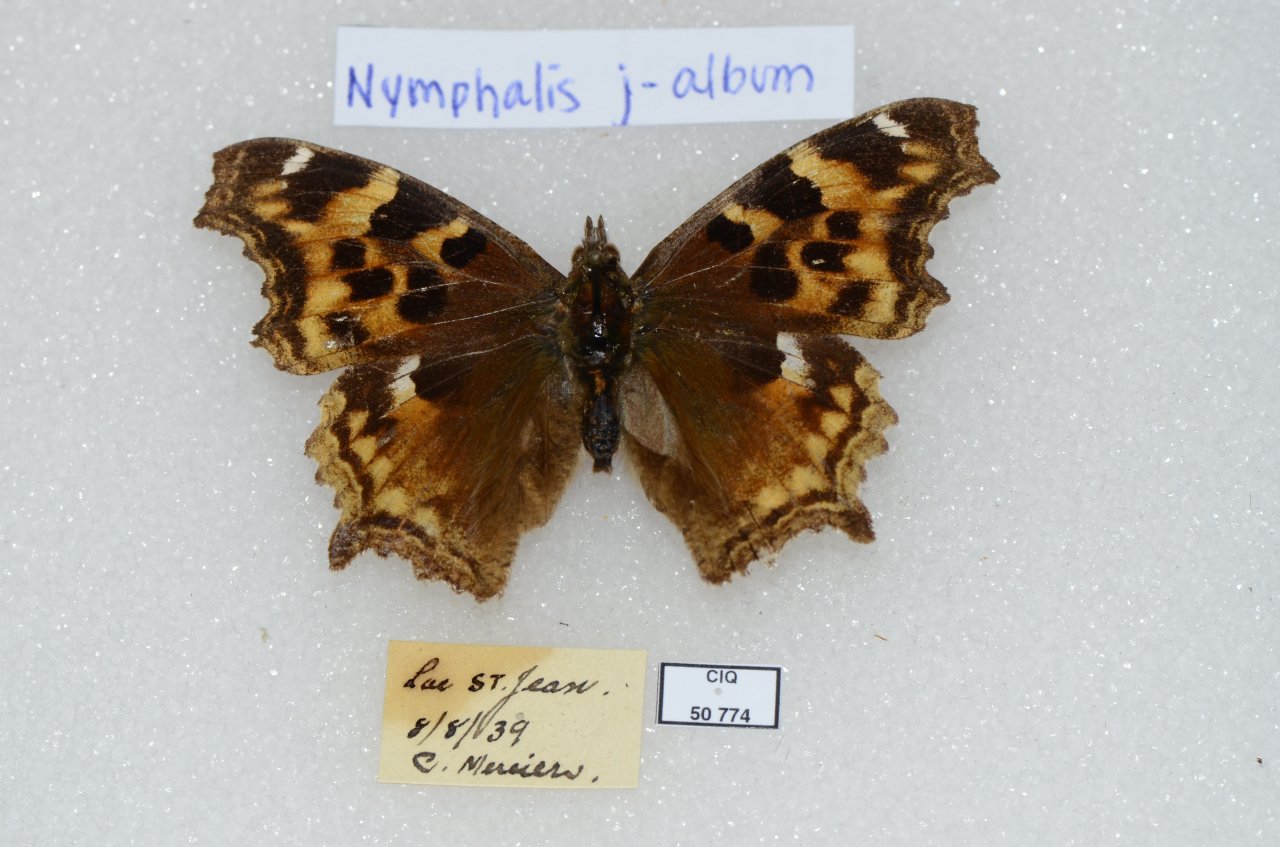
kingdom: Animalia
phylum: Arthropoda
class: Insecta
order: Lepidoptera
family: Nymphalidae
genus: Polygonia
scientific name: Polygonia vaualbum
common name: Compton Tortoiseshell
